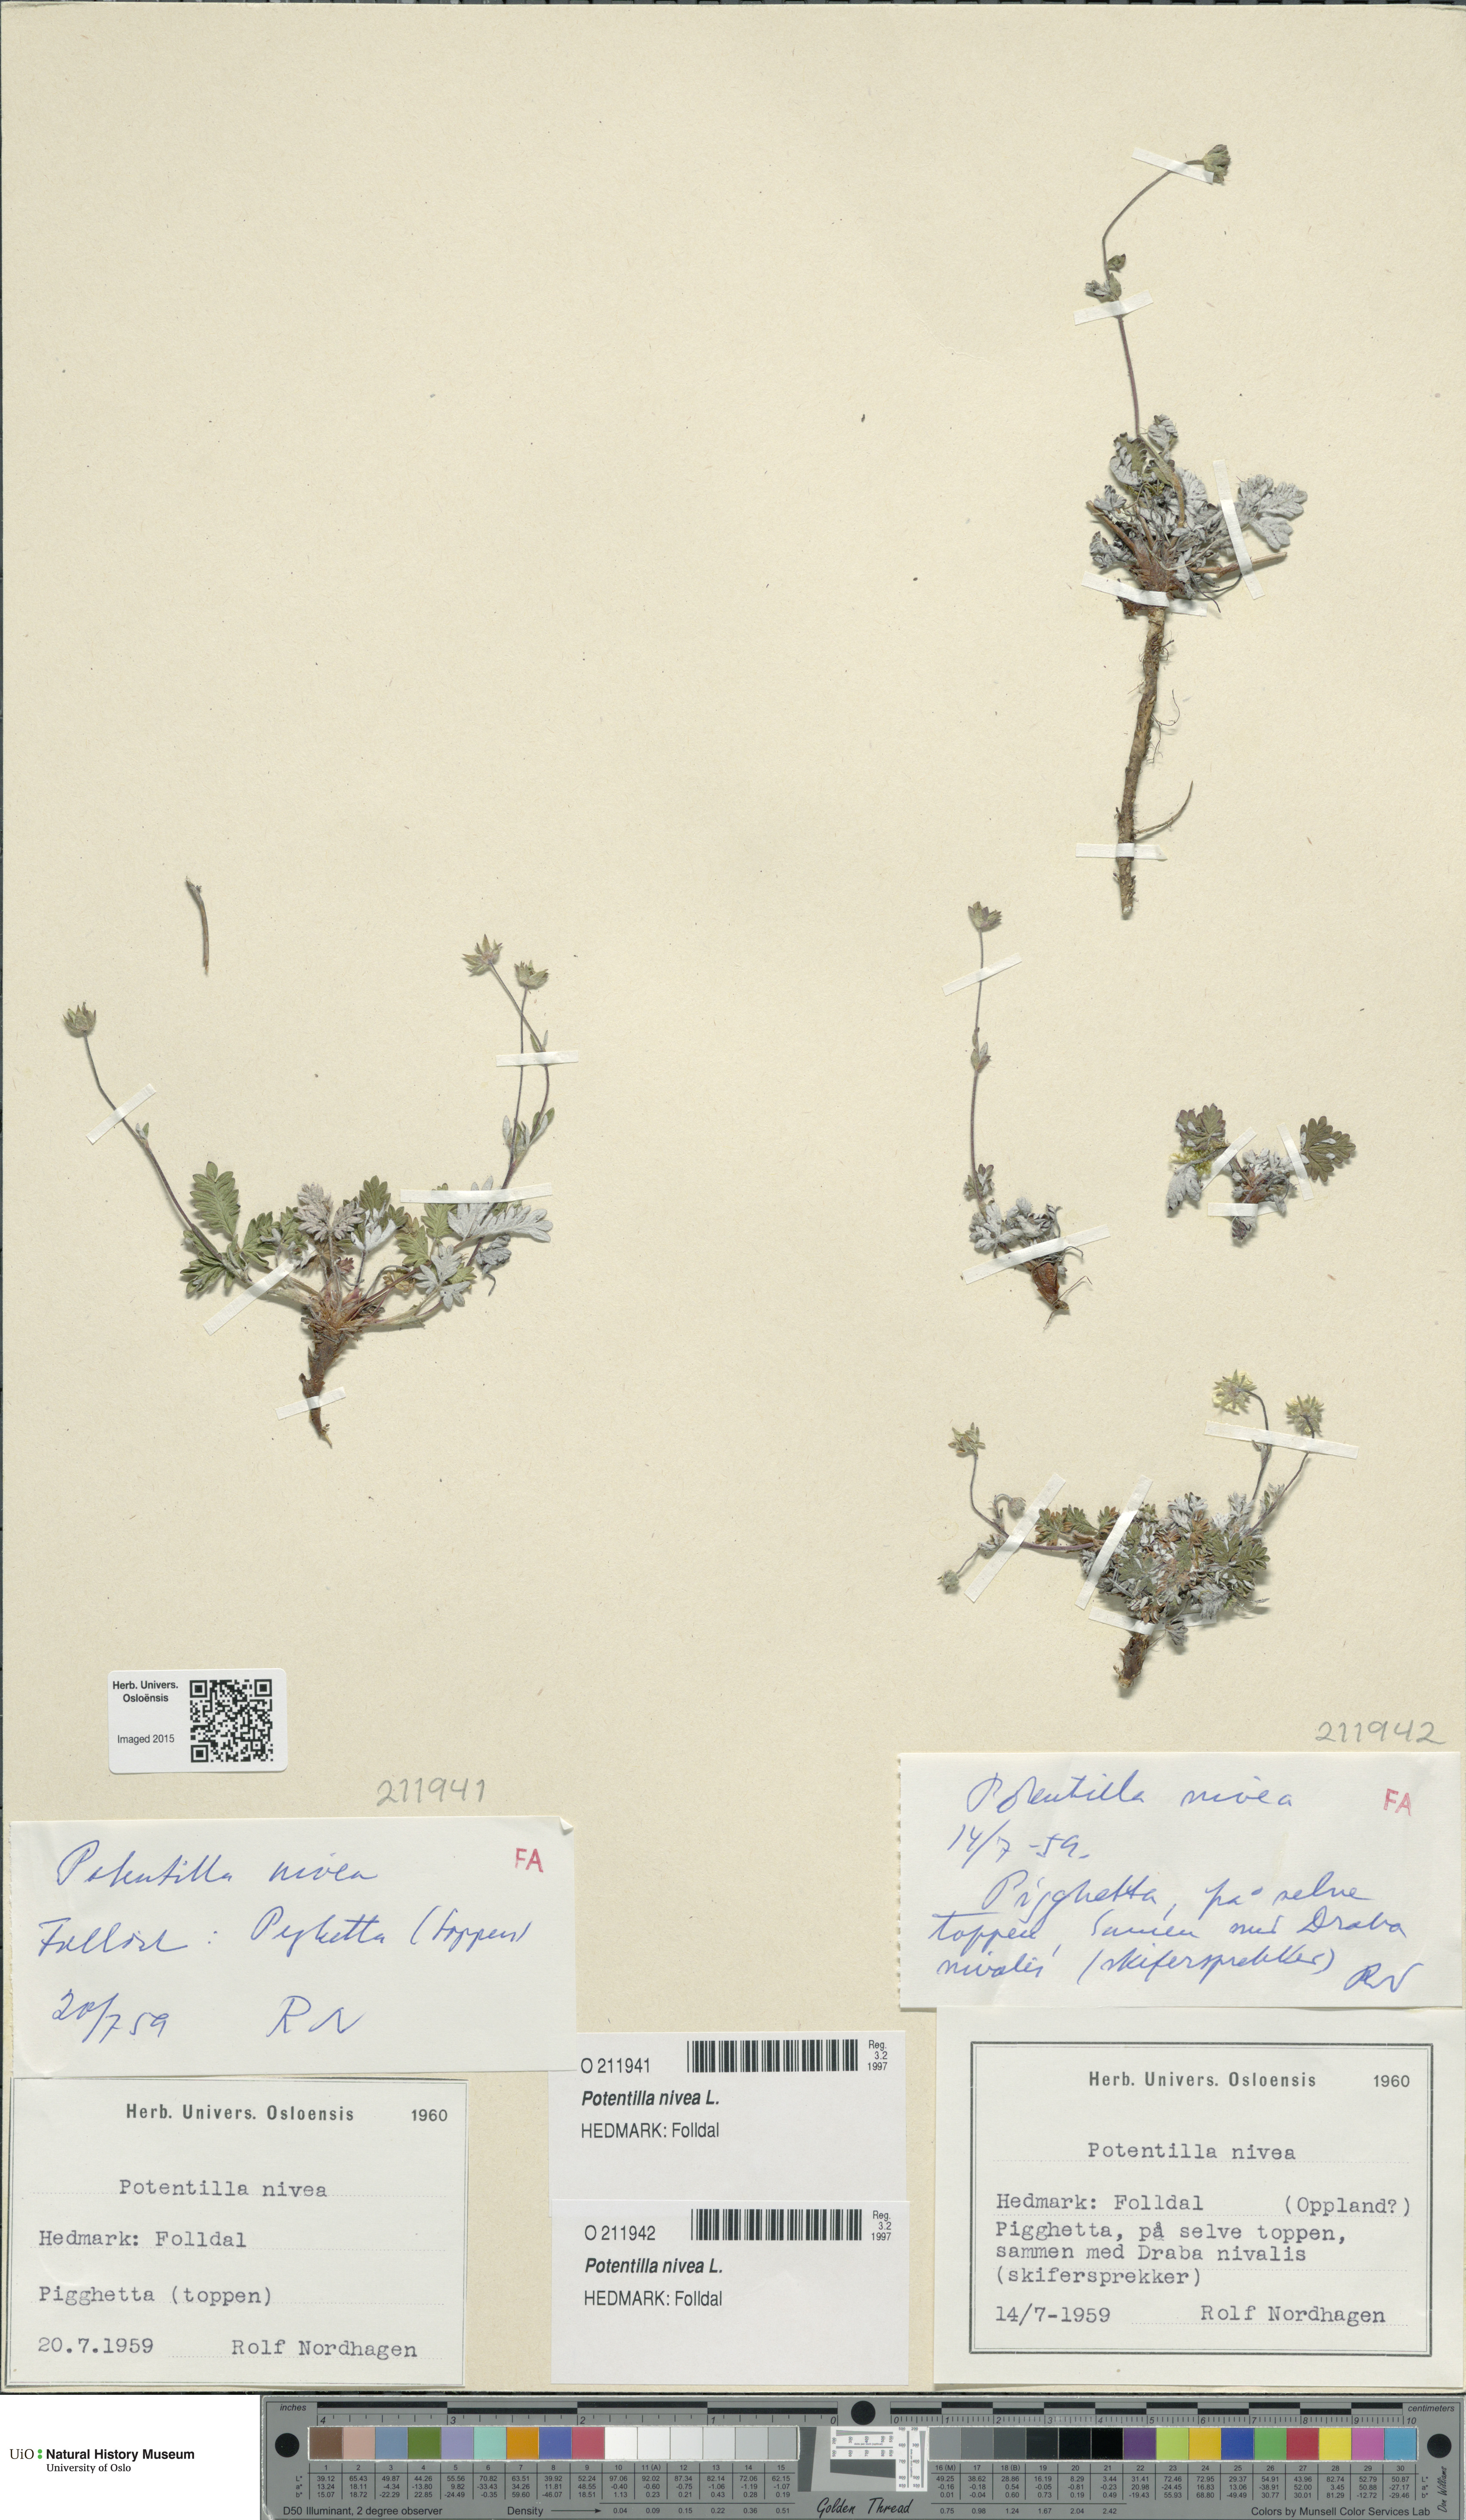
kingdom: Plantae
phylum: Tracheophyta
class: Magnoliopsida
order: Rosales
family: Rosaceae
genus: Potentilla
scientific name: Potentilla arenosa
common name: Bluff cinquefoil
